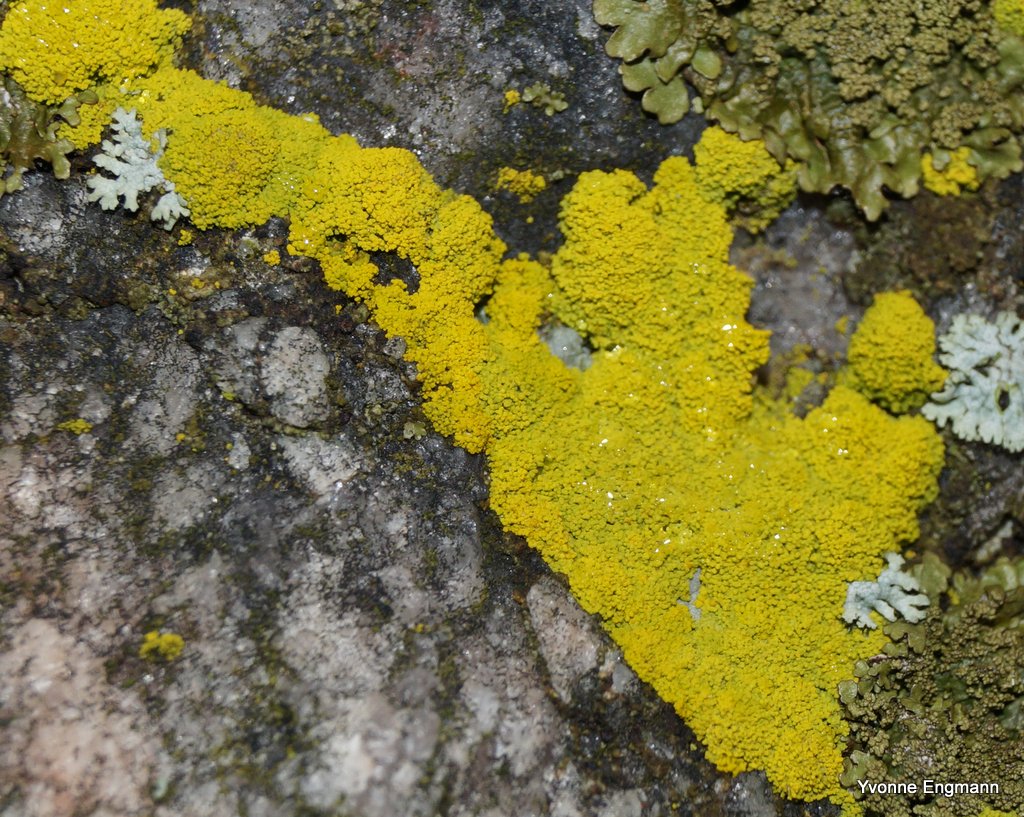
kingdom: Fungi
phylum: Ascomycota
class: Candelariomycetes
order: Candelariales
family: Candelariaceae
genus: Candelariella
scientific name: Candelariella coralliza
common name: pude-æggeblommelav
